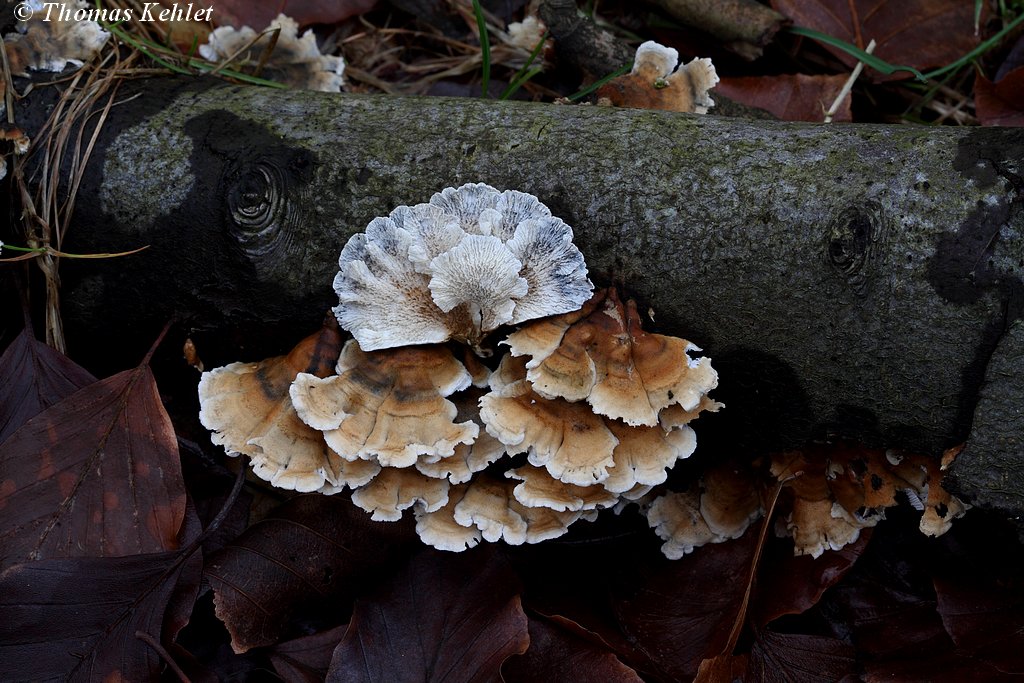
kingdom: Fungi
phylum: Basidiomycota
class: Agaricomycetes
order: Amylocorticiales
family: Amylocorticiaceae
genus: Plicaturopsis
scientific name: Plicaturopsis crispa
